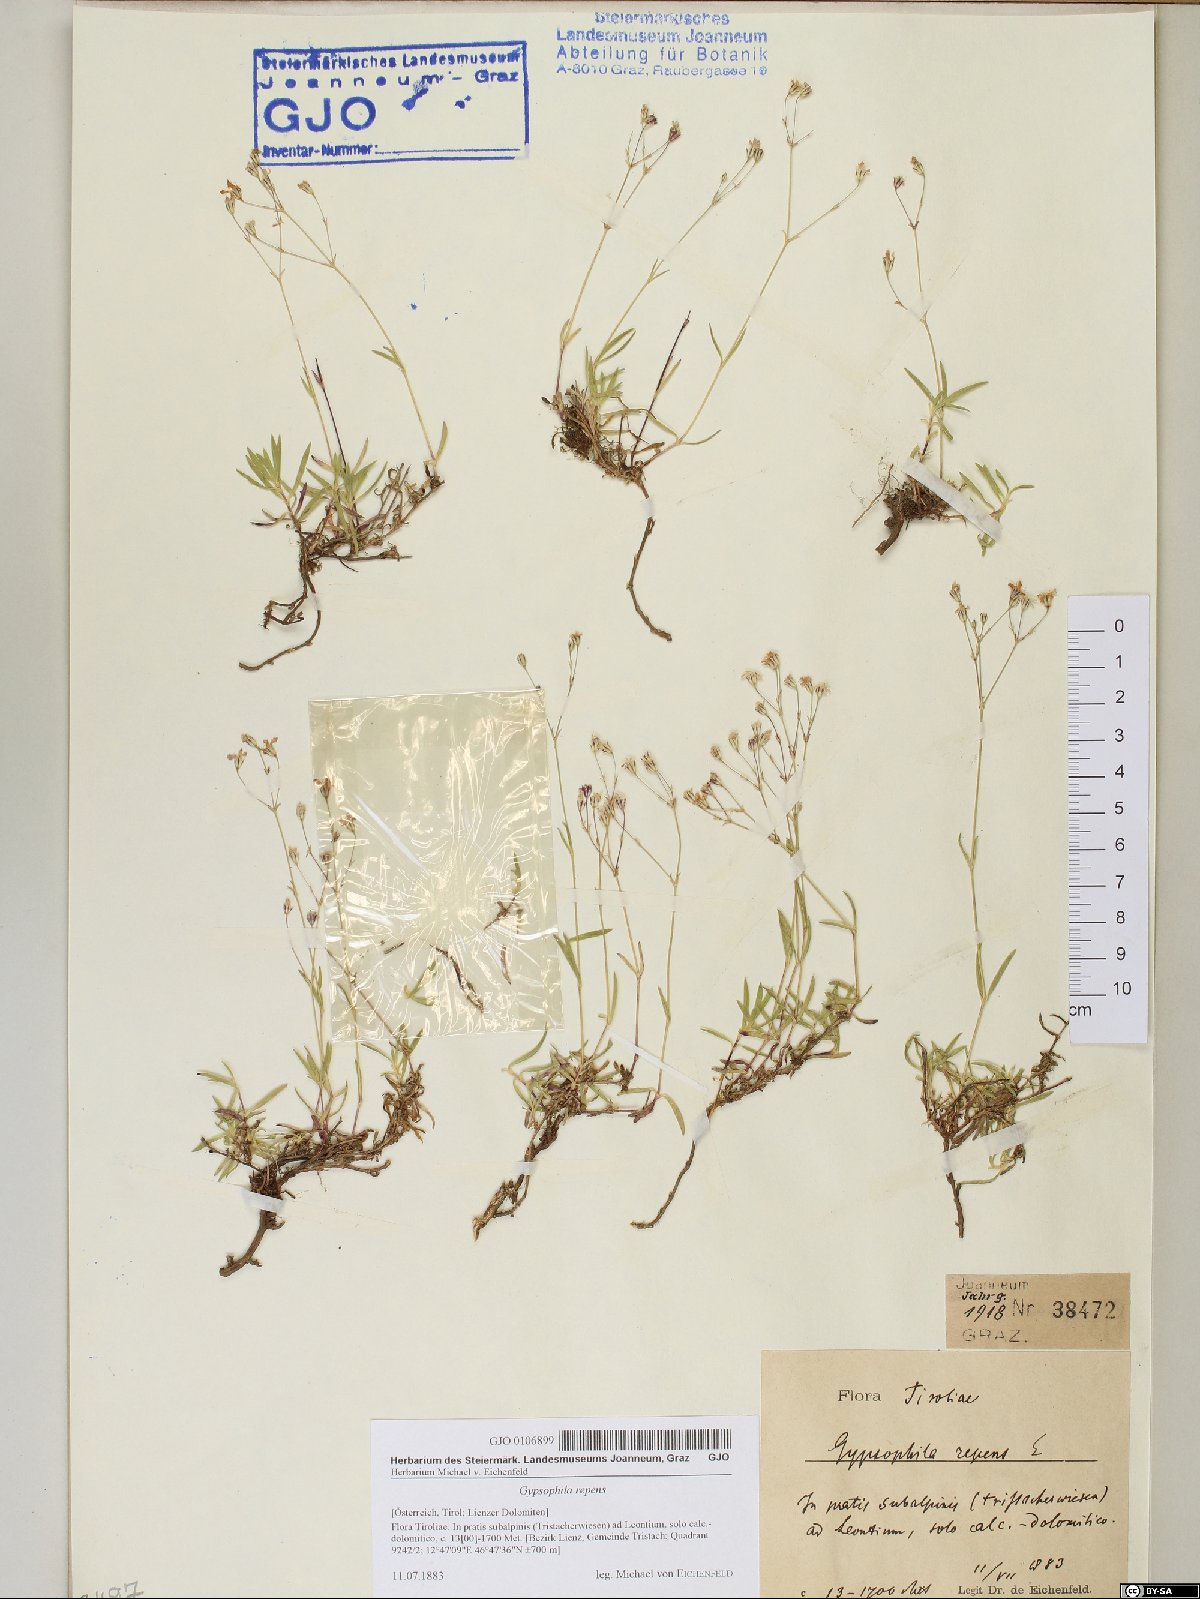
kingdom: Plantae
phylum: Tracheophyta
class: Magnoliopsida
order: Caryophyllales
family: Caryophyllaceae
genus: Gypsophila
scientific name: Gypsophila repens
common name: Creeping baby's-breath
